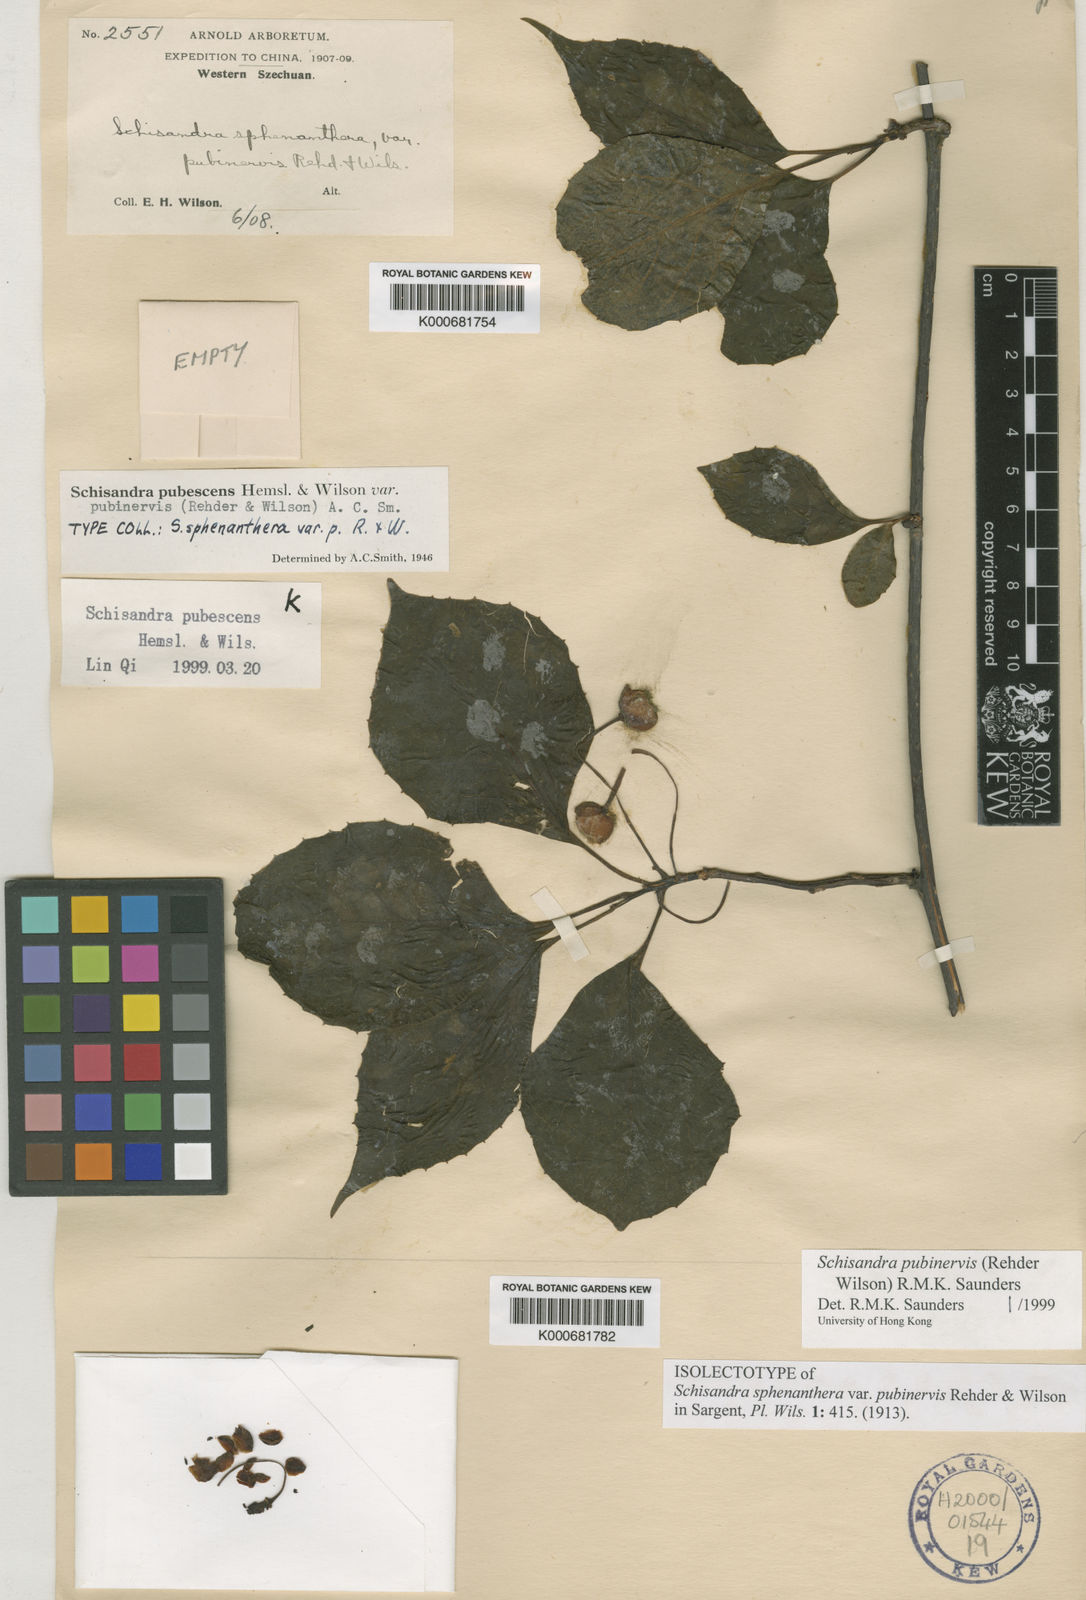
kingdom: Plantae
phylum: Tracheophyta
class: Magnoliopsida
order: Austrobaileyales
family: Schisandraceae
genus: Schisandra
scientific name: Schisandra sphenanthera
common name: Lemonwood
